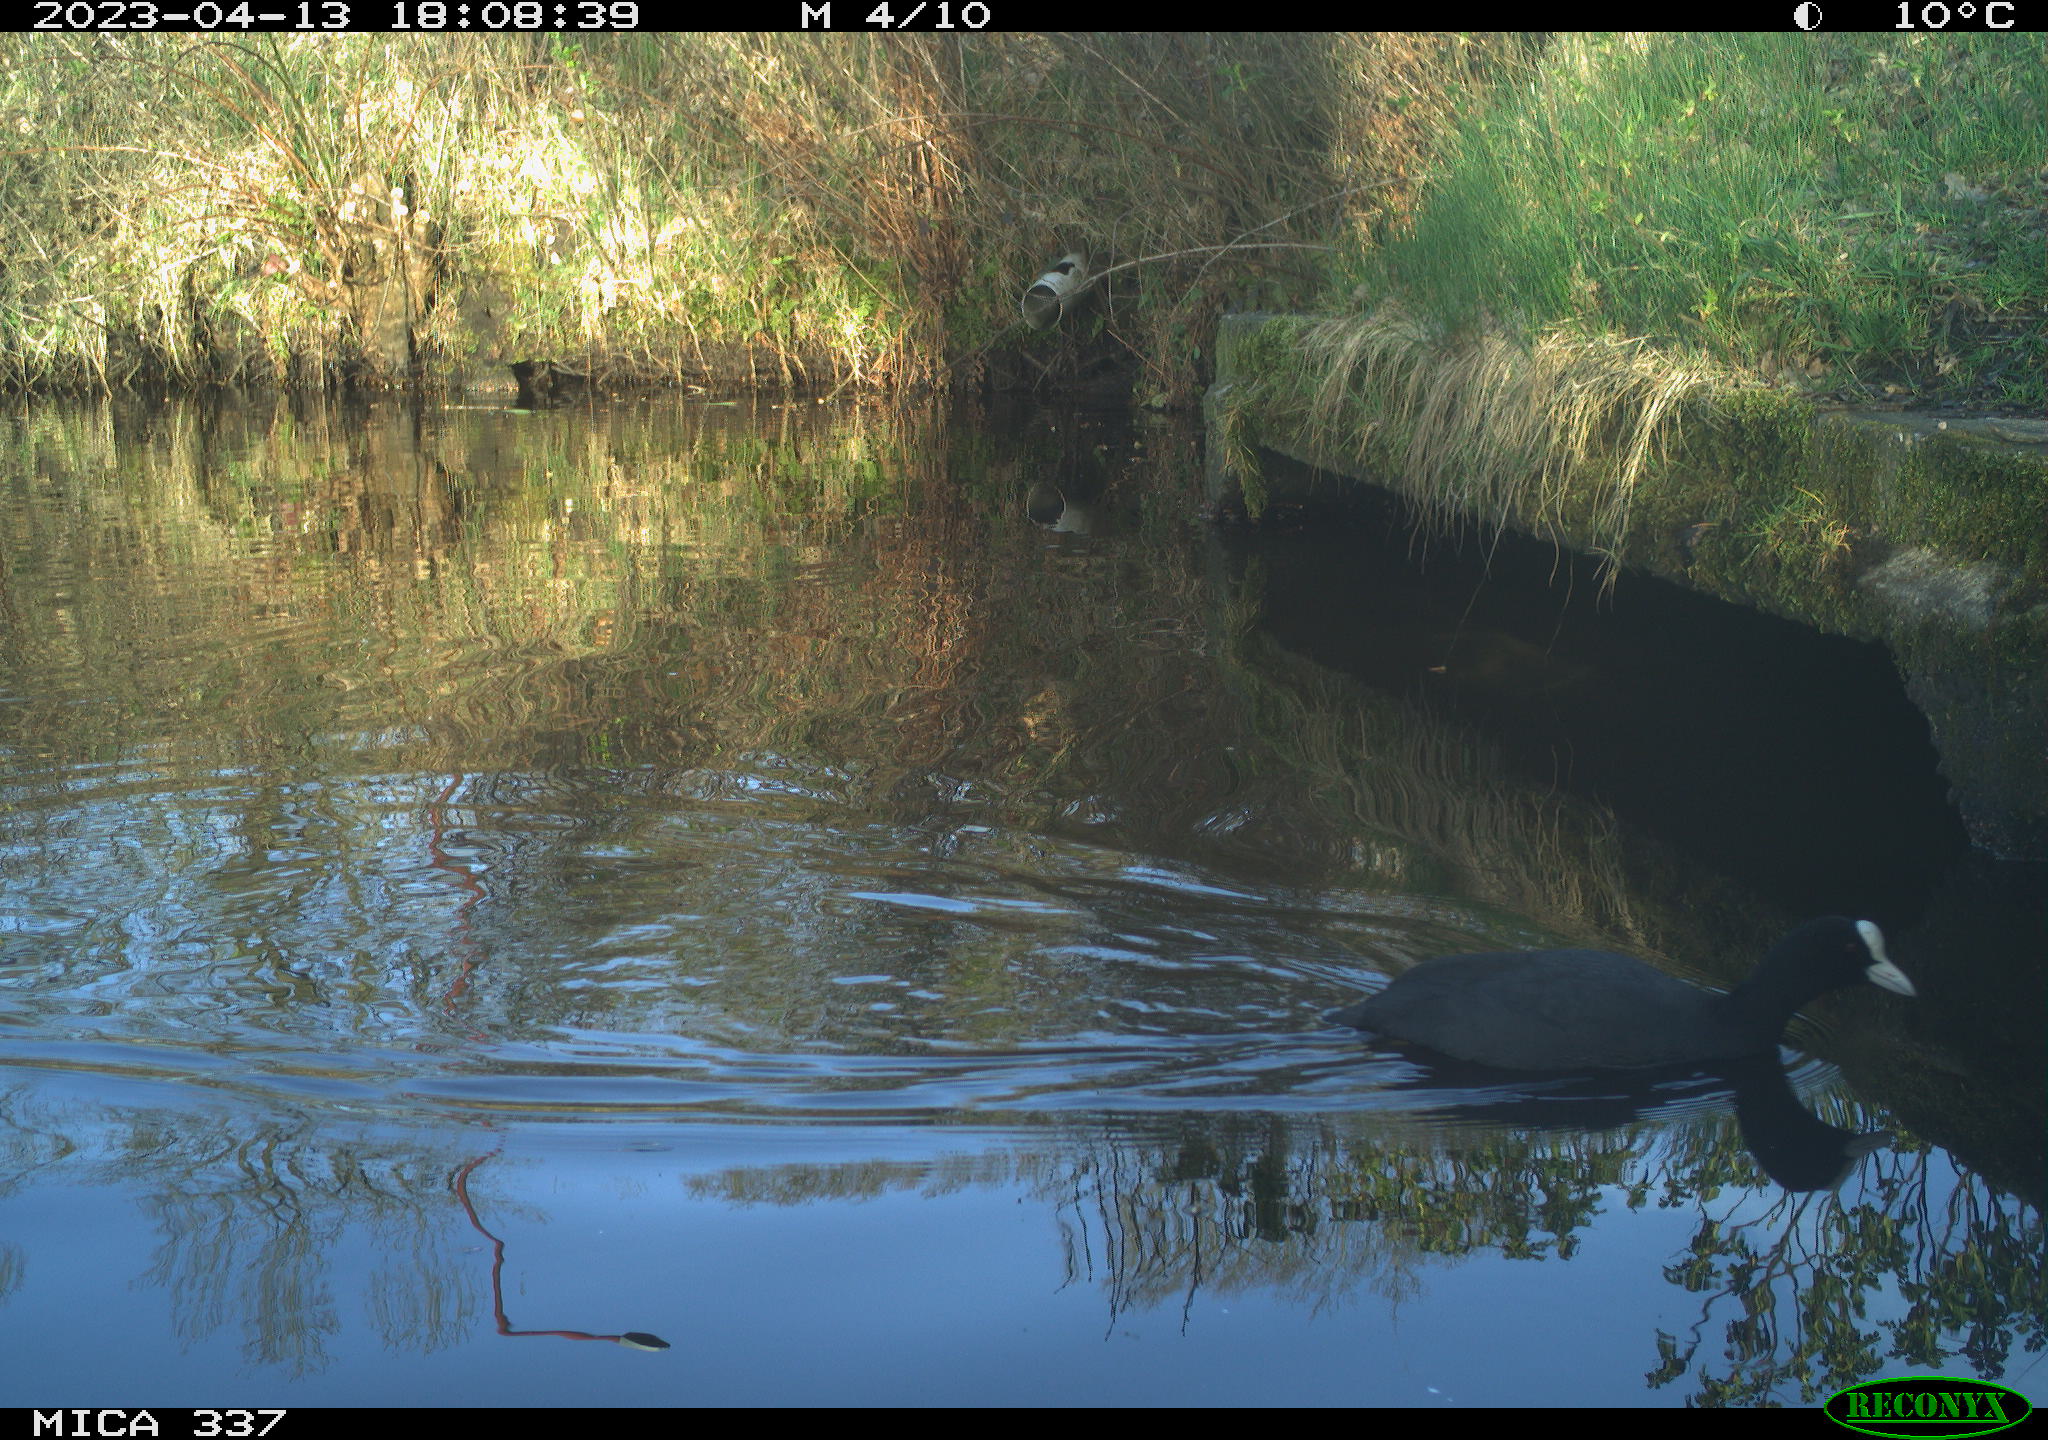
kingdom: Animalia
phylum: Chordata
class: Aves
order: Gruiformes
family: Rallidae
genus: Fulica
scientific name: Fulica atra
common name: Eurasian coot
